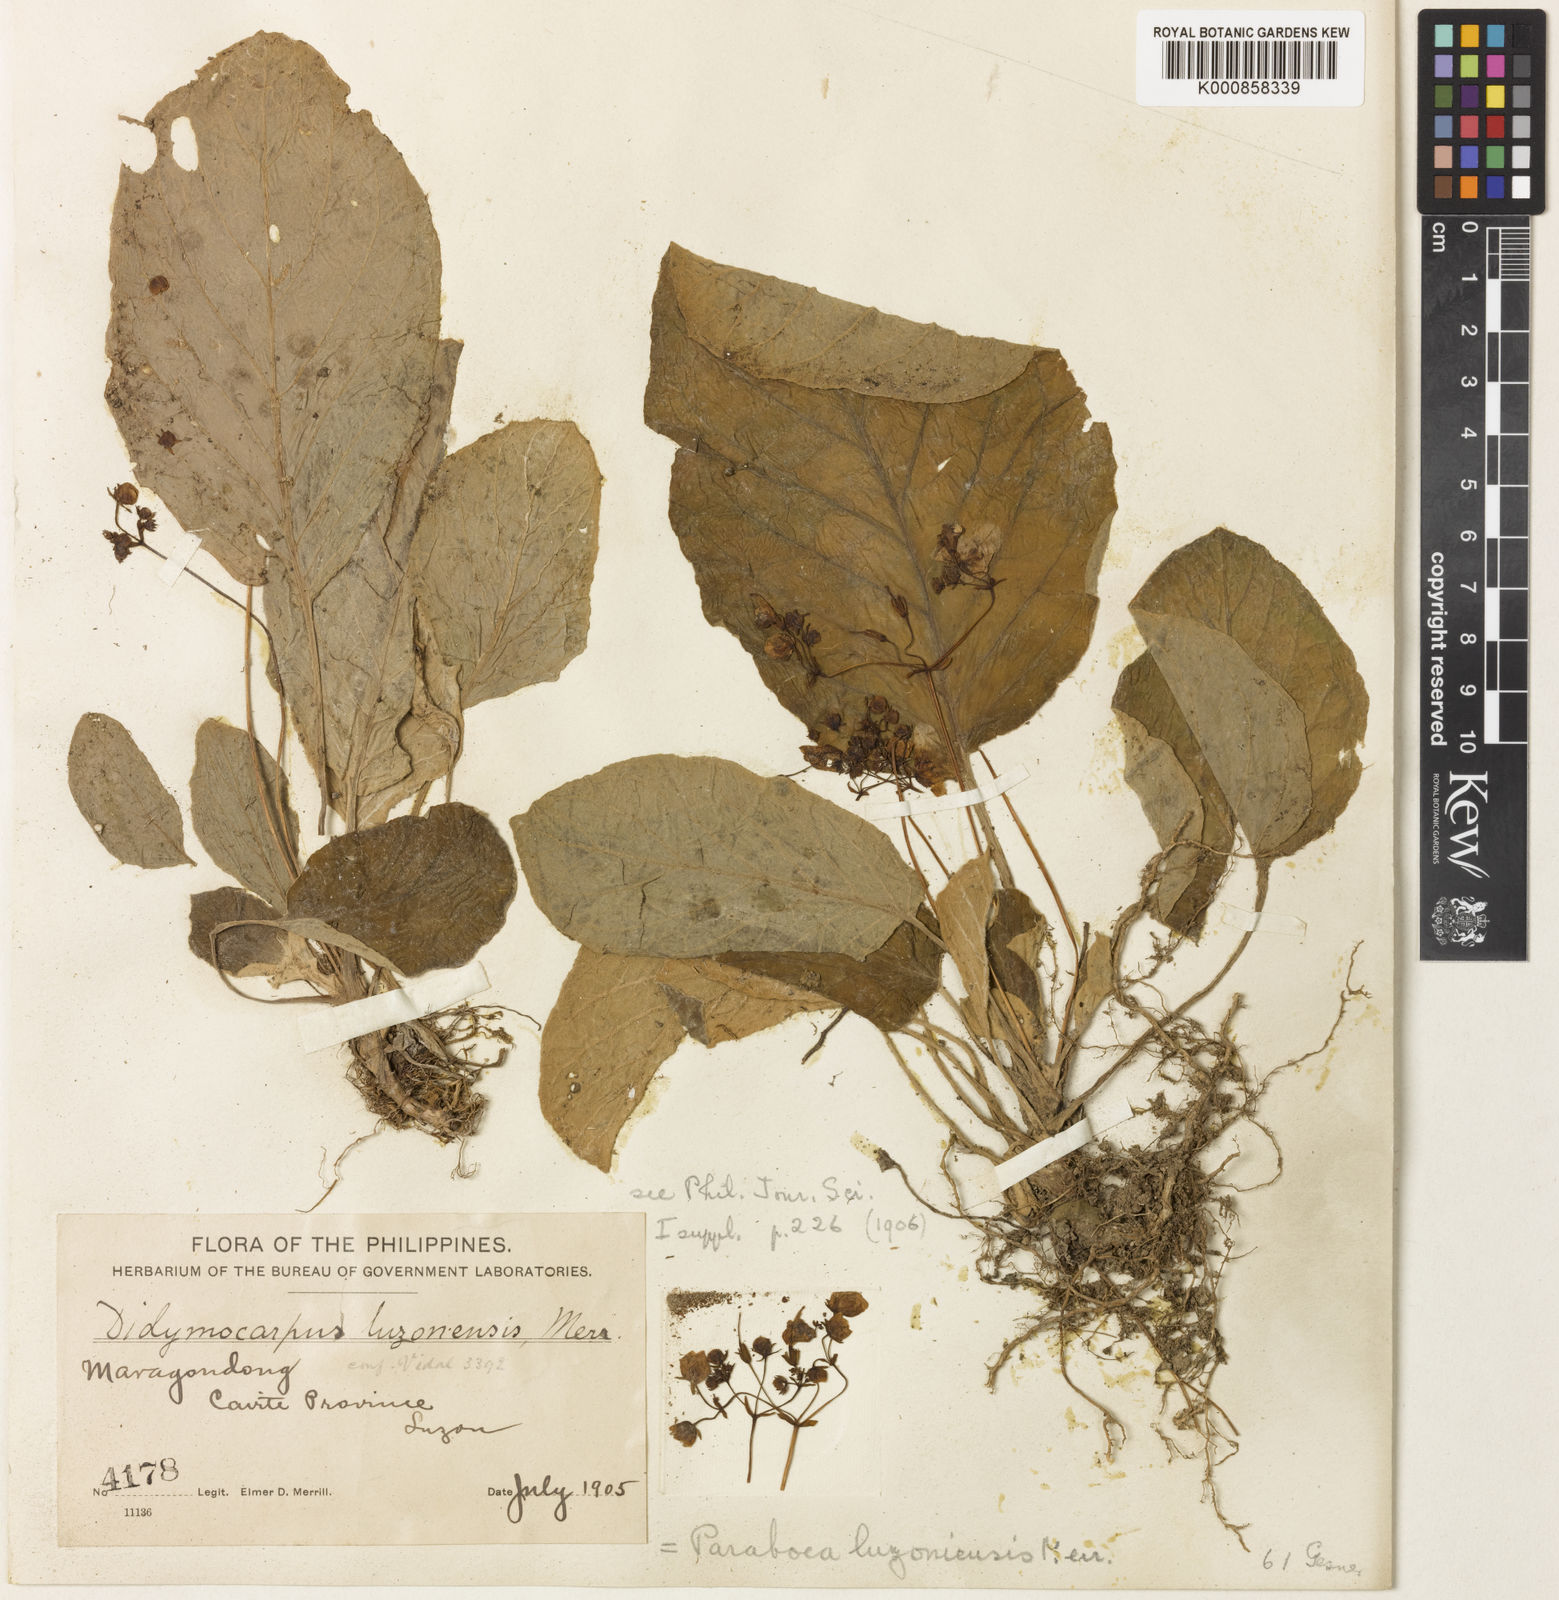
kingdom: Plantae
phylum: Tracheophyta
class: Magnoliopsida
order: Lamiales
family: Gesneriaceae
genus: Paraboea
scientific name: Paraboea luzoniensis
